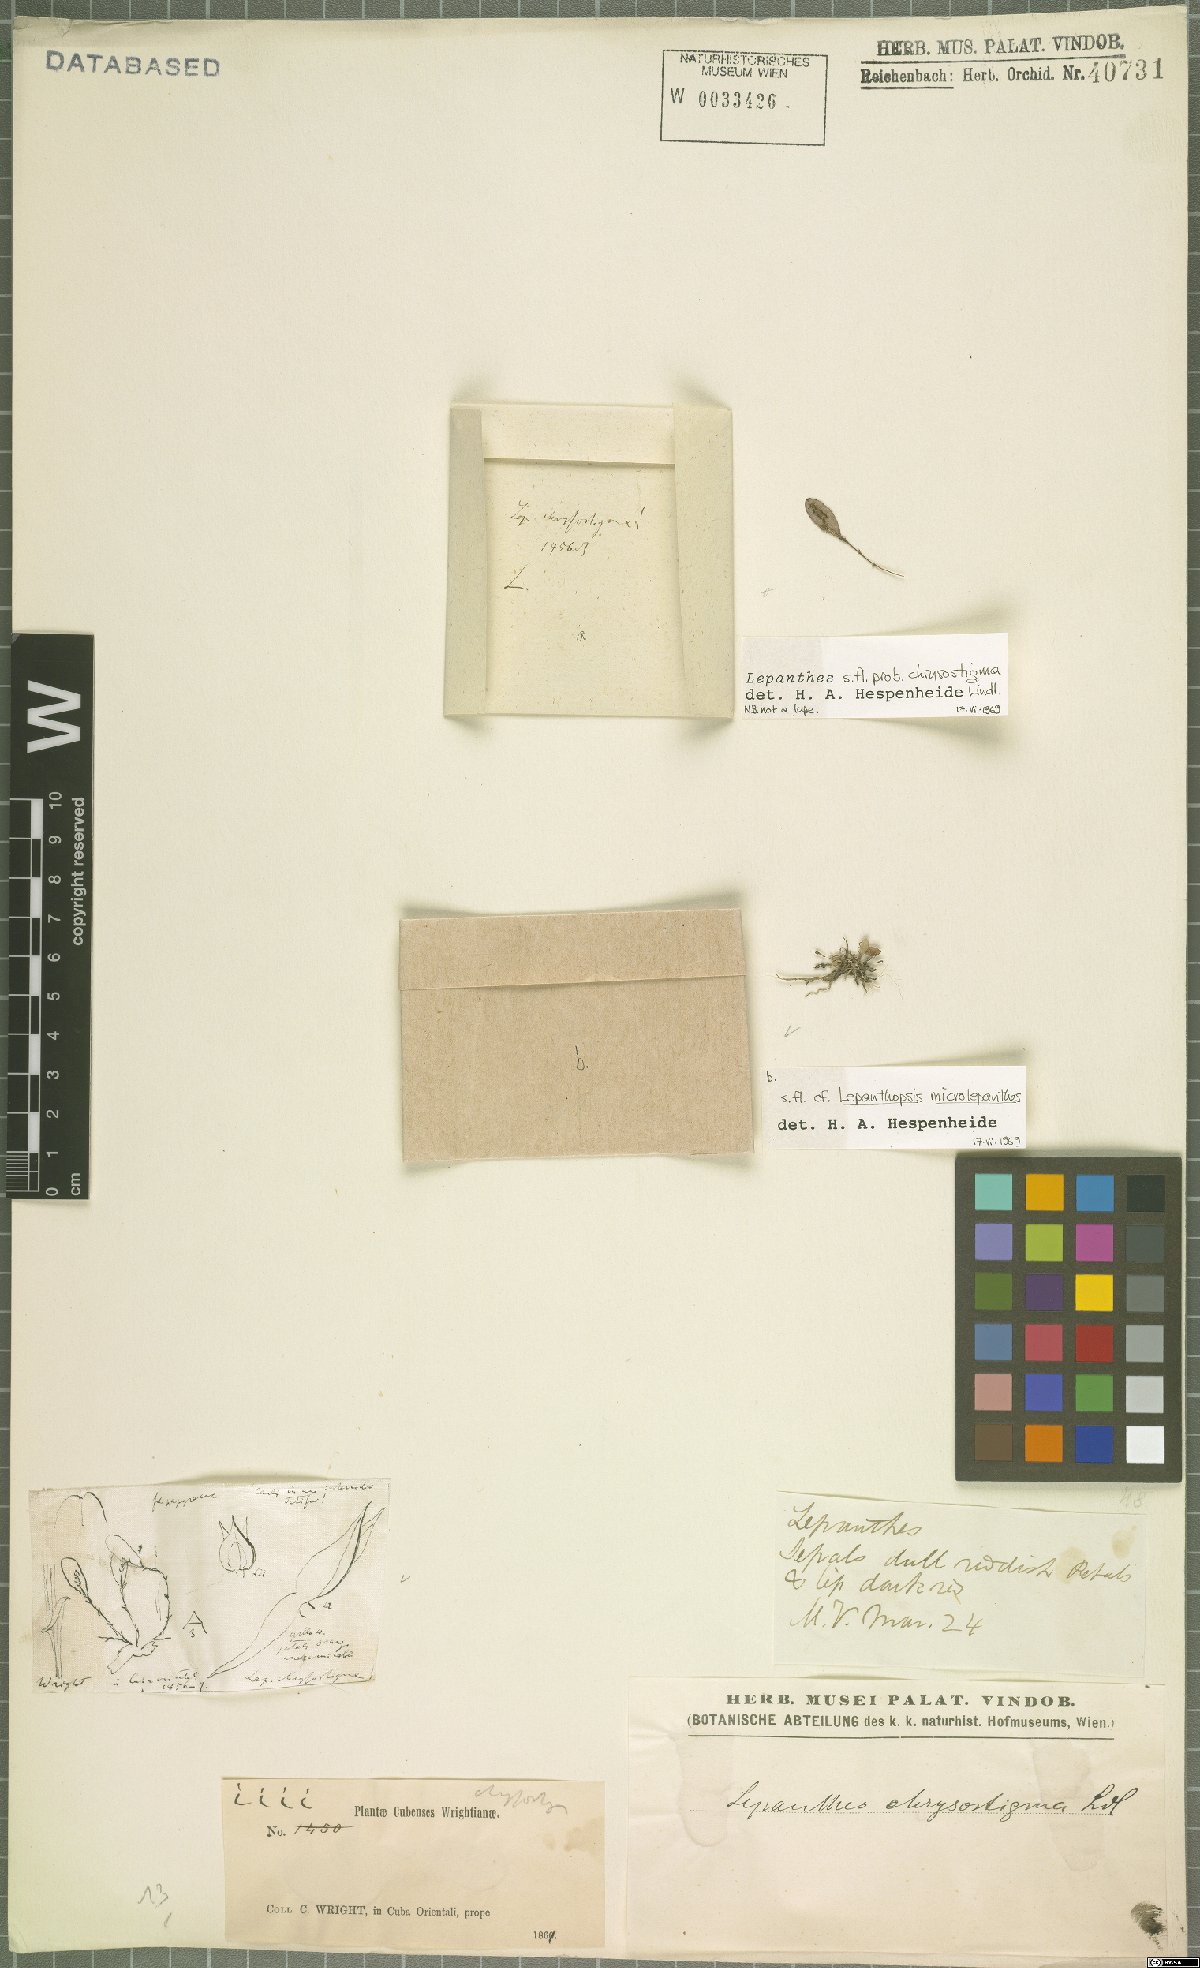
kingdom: Plantae
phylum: Tracheophyta
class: Liliopsida
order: Asparagales
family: Orchidaceae
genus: Lepanthes
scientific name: Lepanthes chrysostigma
